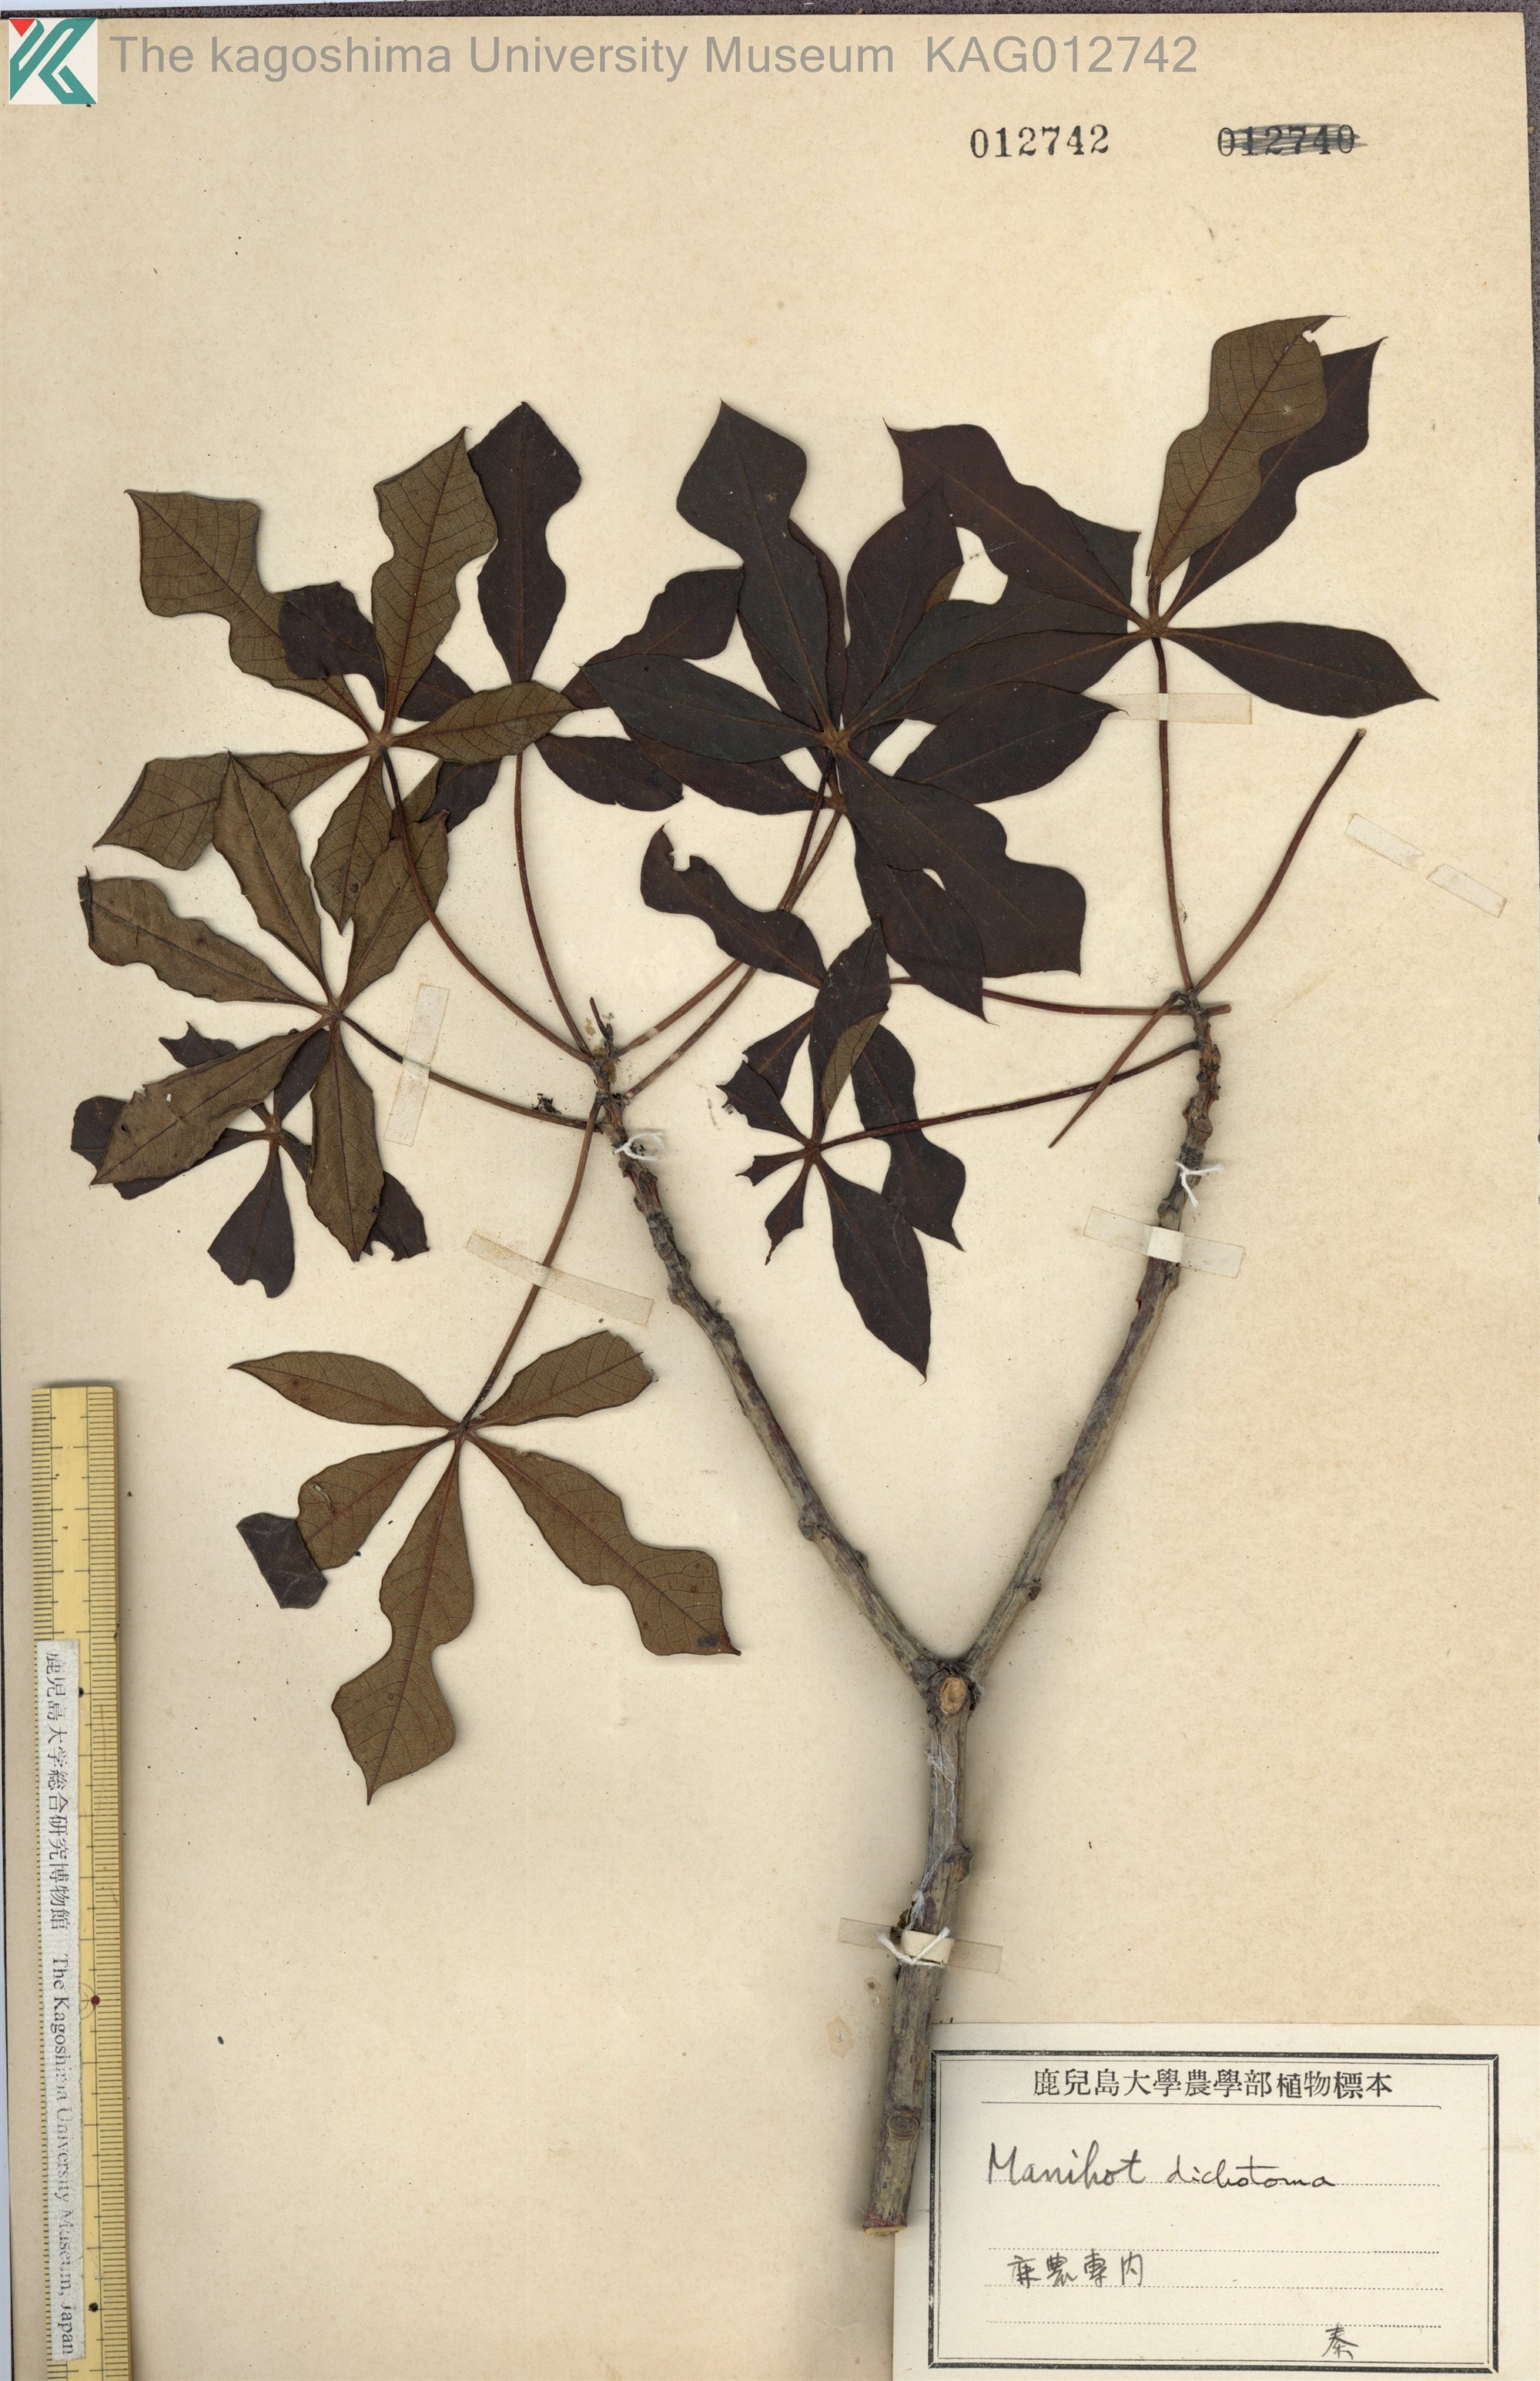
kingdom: Plantae
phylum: Tracheophyta
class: Magnoliopsida
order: Malpighiales
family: Euphorbiaceae
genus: Manihot
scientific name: Manihot dichotoma
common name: Jequie rubber tree
